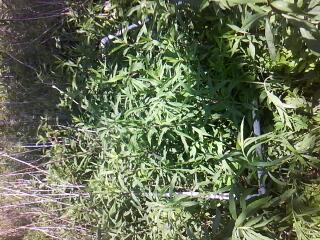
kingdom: Plantae
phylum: Tracheophyta
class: Liliopsida
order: Alismatales
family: Araceae
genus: Symplocarpus
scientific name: Symplocarpus foetidus
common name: Eastern skunk cabbage
